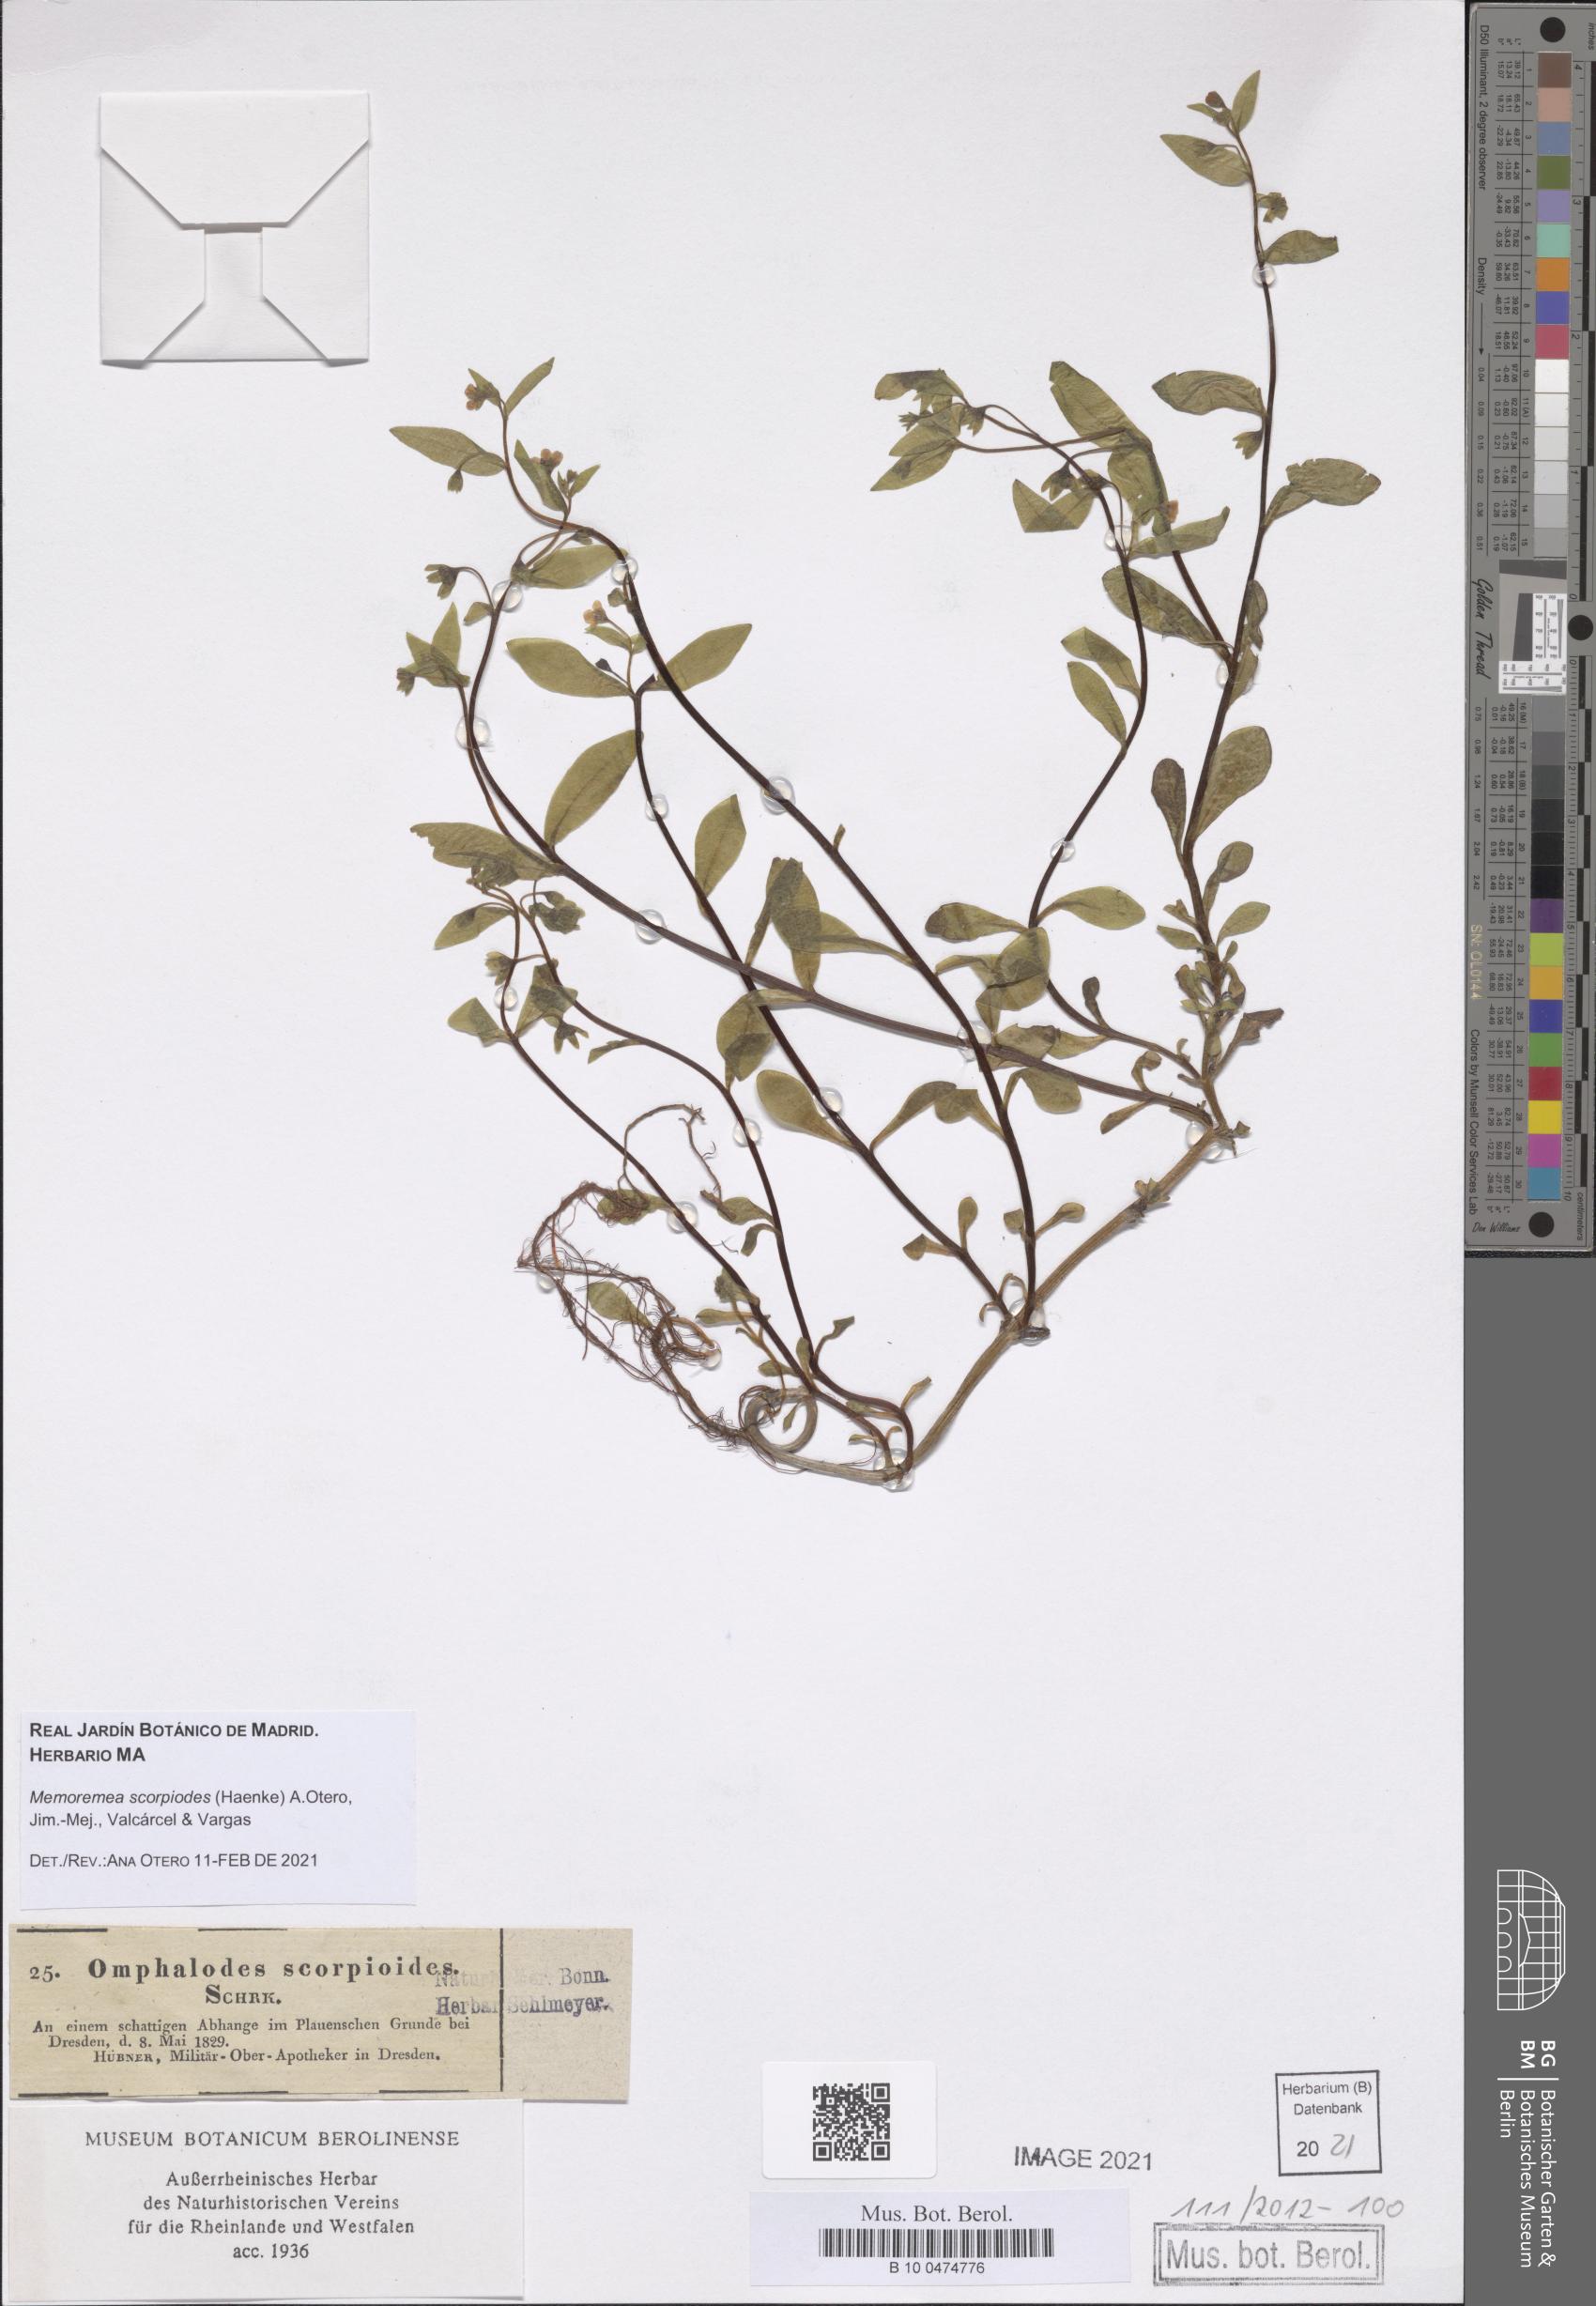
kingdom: Plantae
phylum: Tracheophyta
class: Magnoliopsida
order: Boraginales
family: Boraginaceae
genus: Memoremea
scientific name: Memoremea scorpioides
